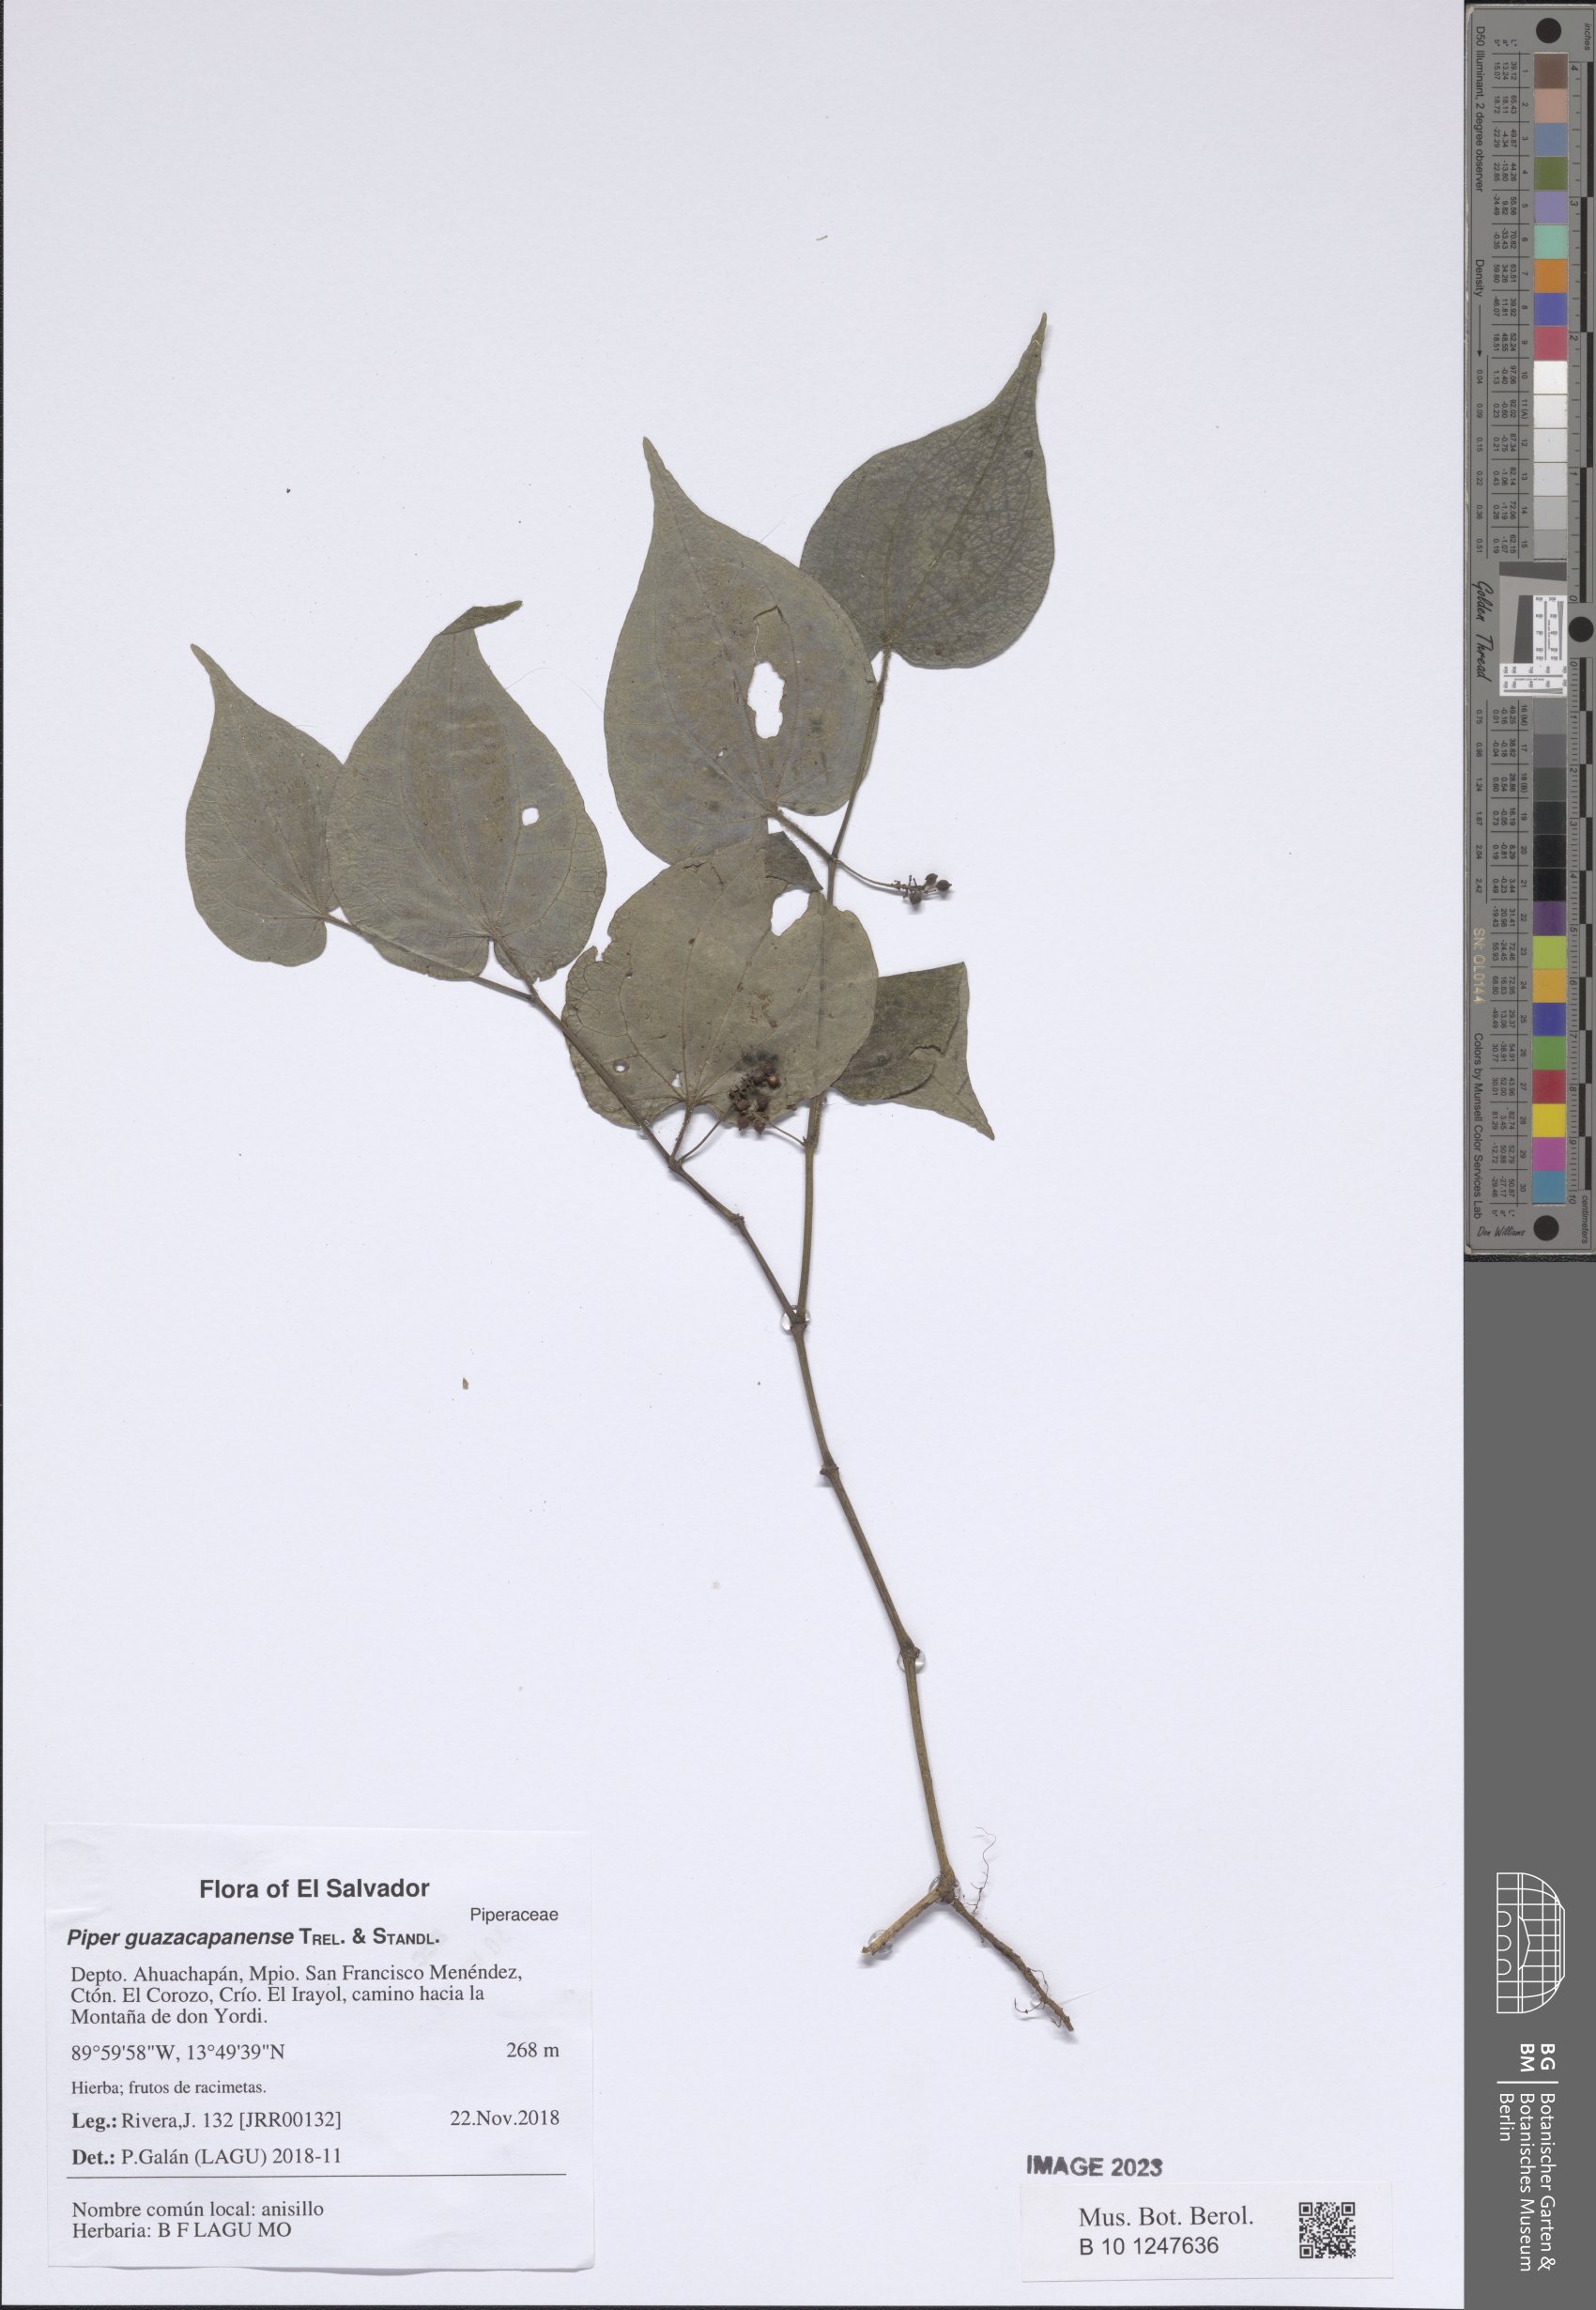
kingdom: Plantae
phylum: Tracheophyta
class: Magnoliopsida
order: Piperales
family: Piperaceae
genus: Piper
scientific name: Piper guazacapanense
